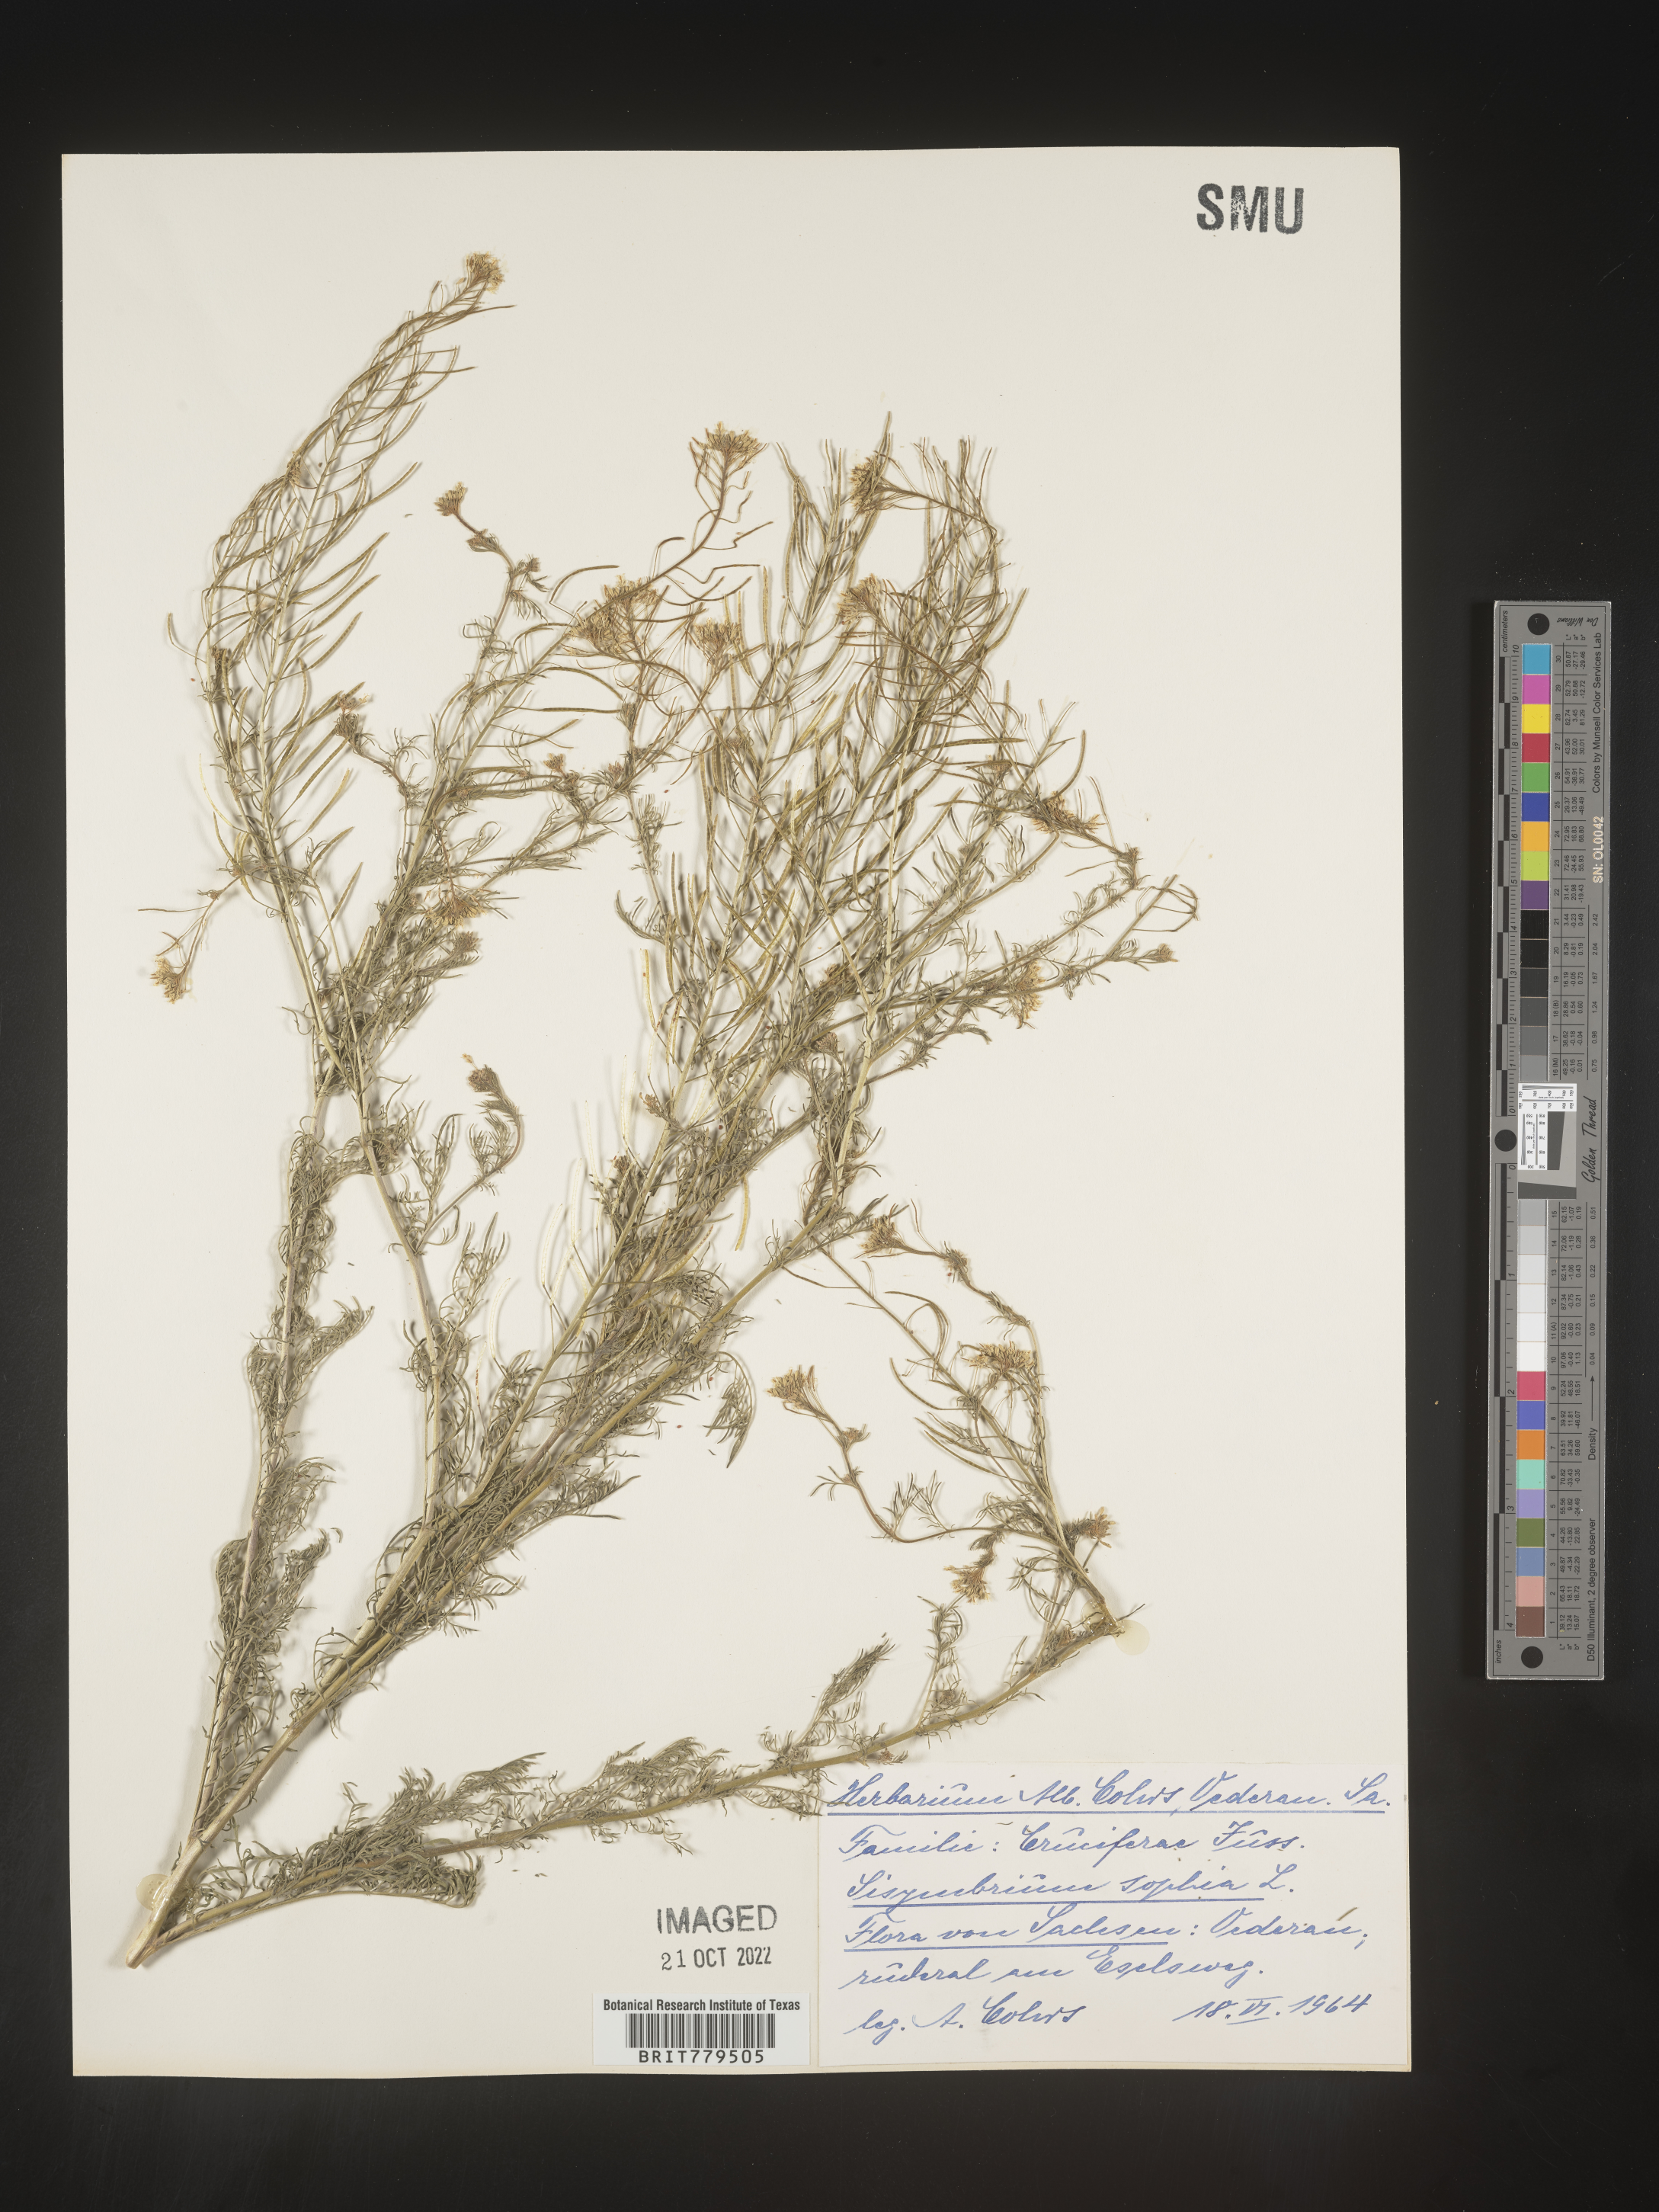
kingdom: Plantae
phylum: Tracheophyta
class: Magnoliopsida
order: Brassicales
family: Brassicaceae
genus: Sisymbrium
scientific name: Sisymbrium
